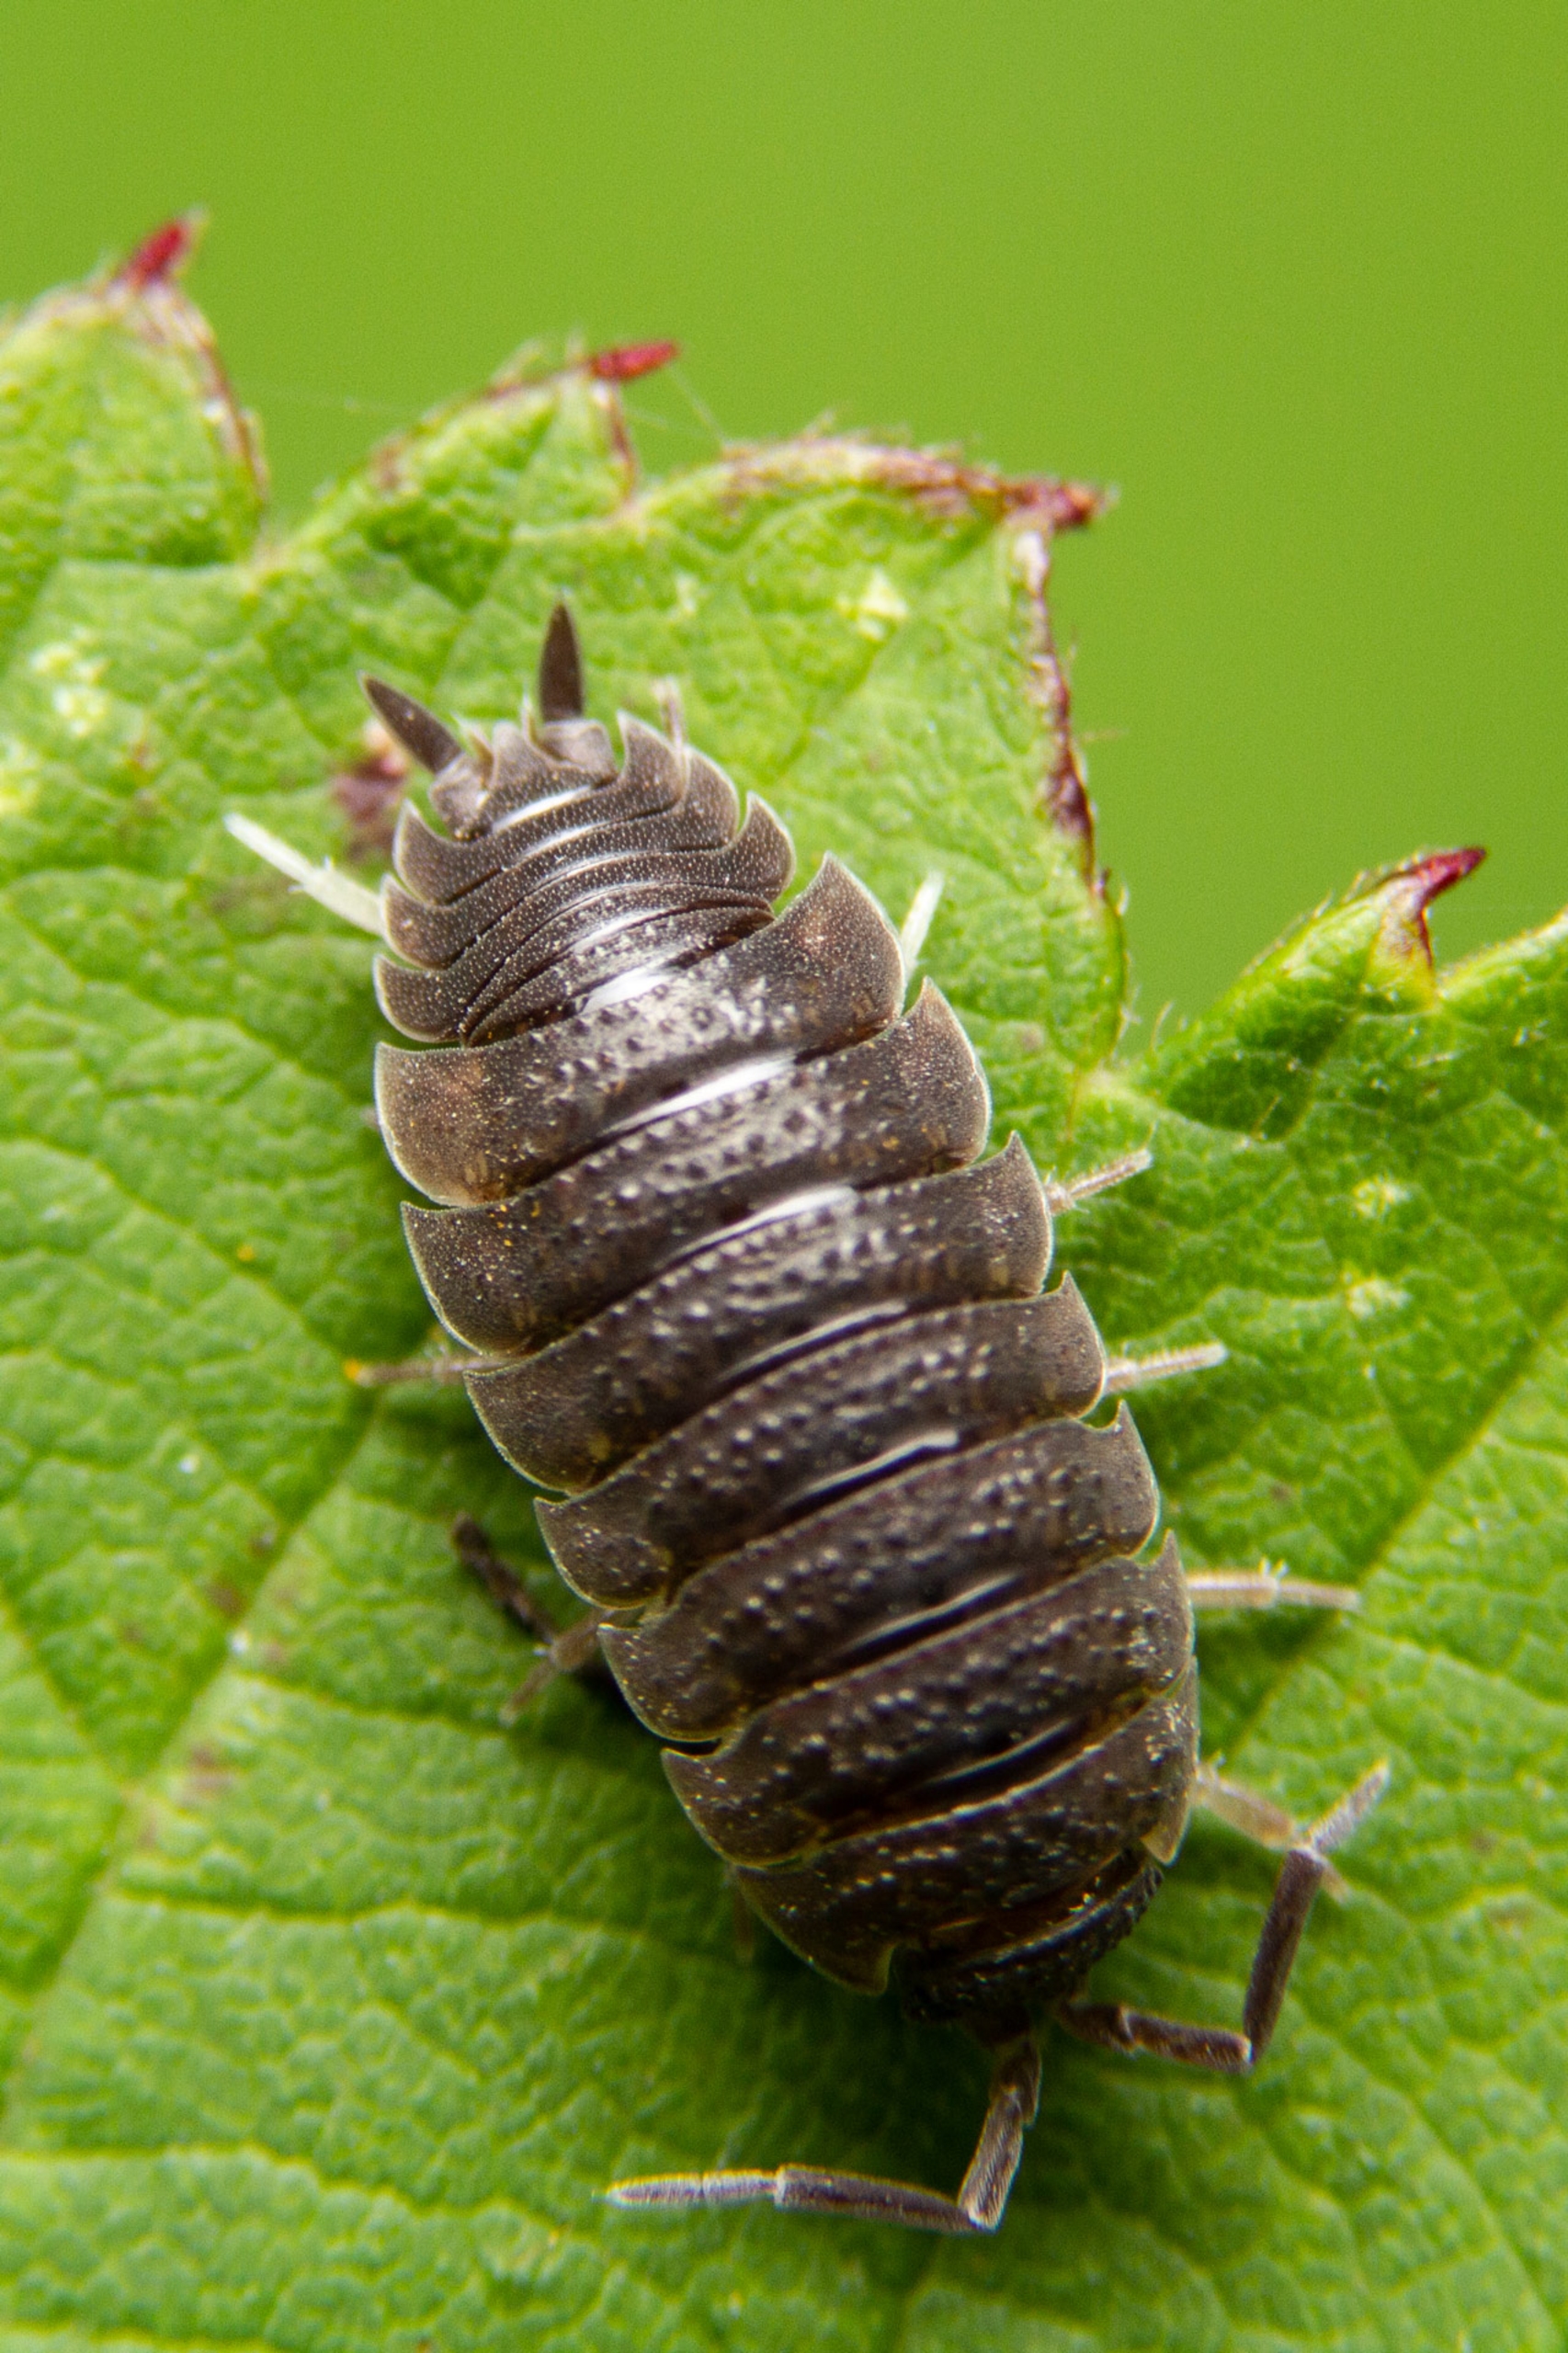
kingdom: Animalia
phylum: Arthropoda
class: Malacostraca
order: Isopoda
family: Porcellionidae
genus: Porcellio
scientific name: Porcellio scaber
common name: Grå bænkebider
